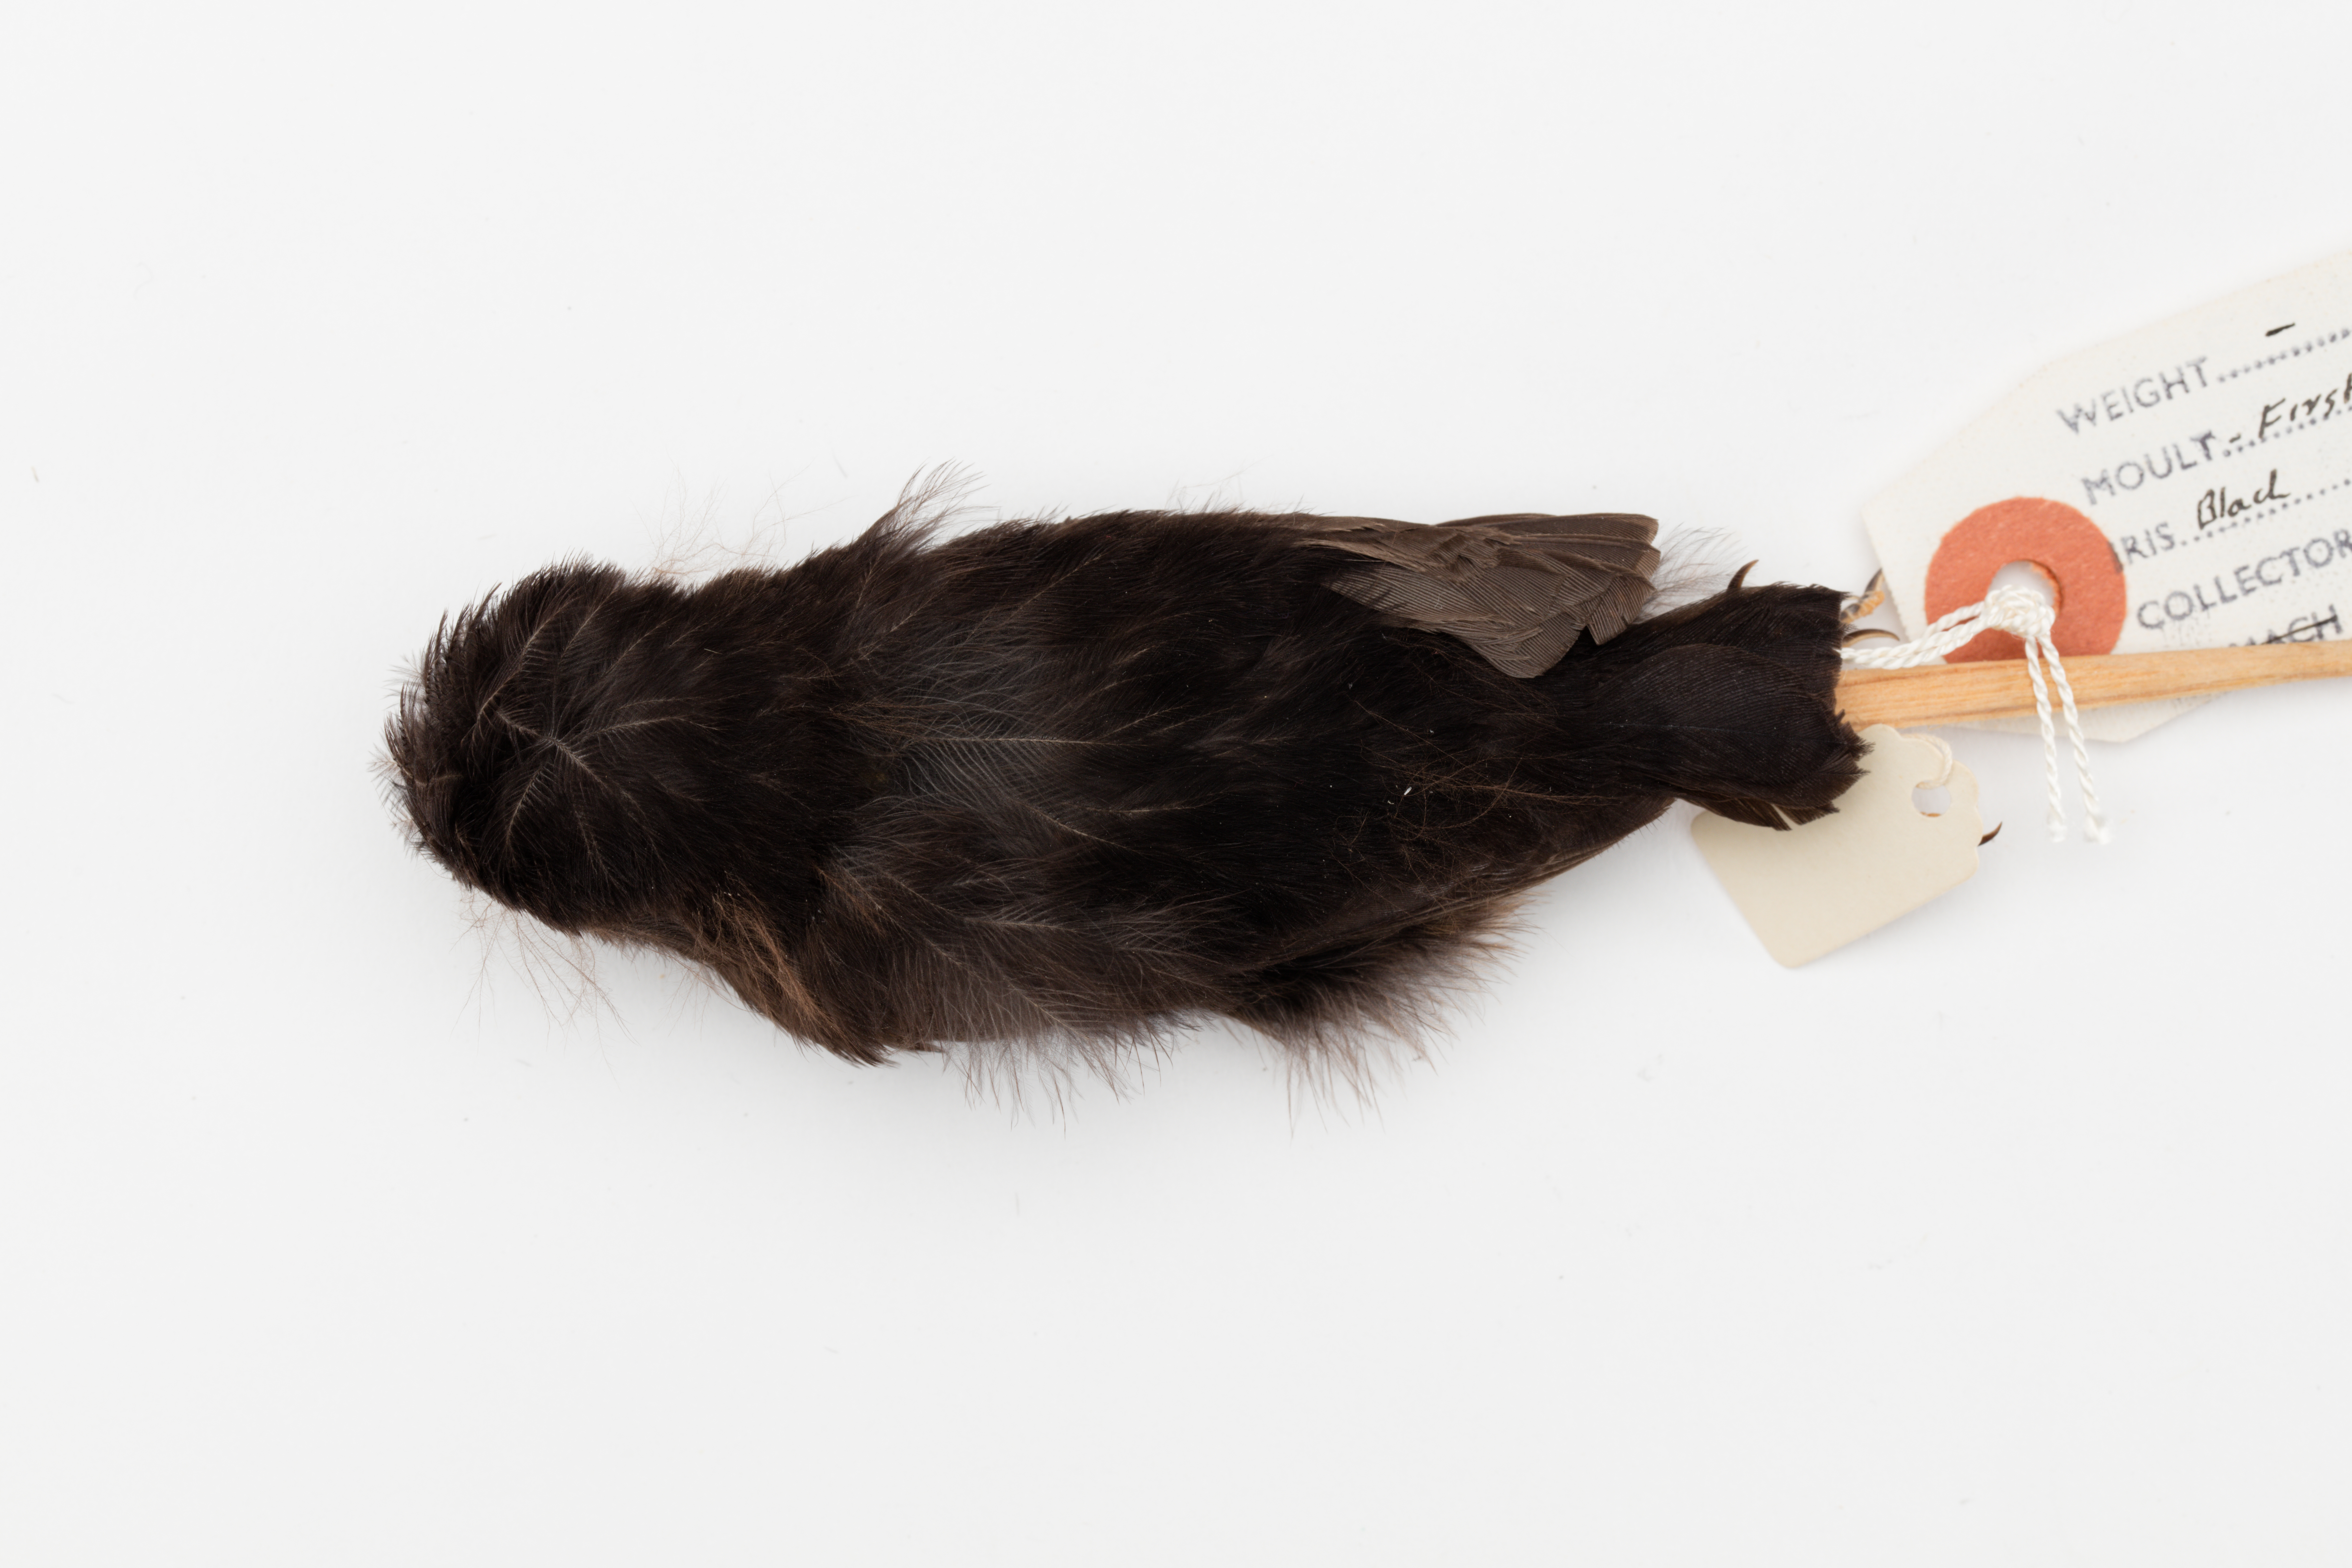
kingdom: Animalia
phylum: Chordata
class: Aves
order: Passeriformes
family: Petroicidae
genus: Petroica
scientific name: Petroica macrocephala
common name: Tomtit
